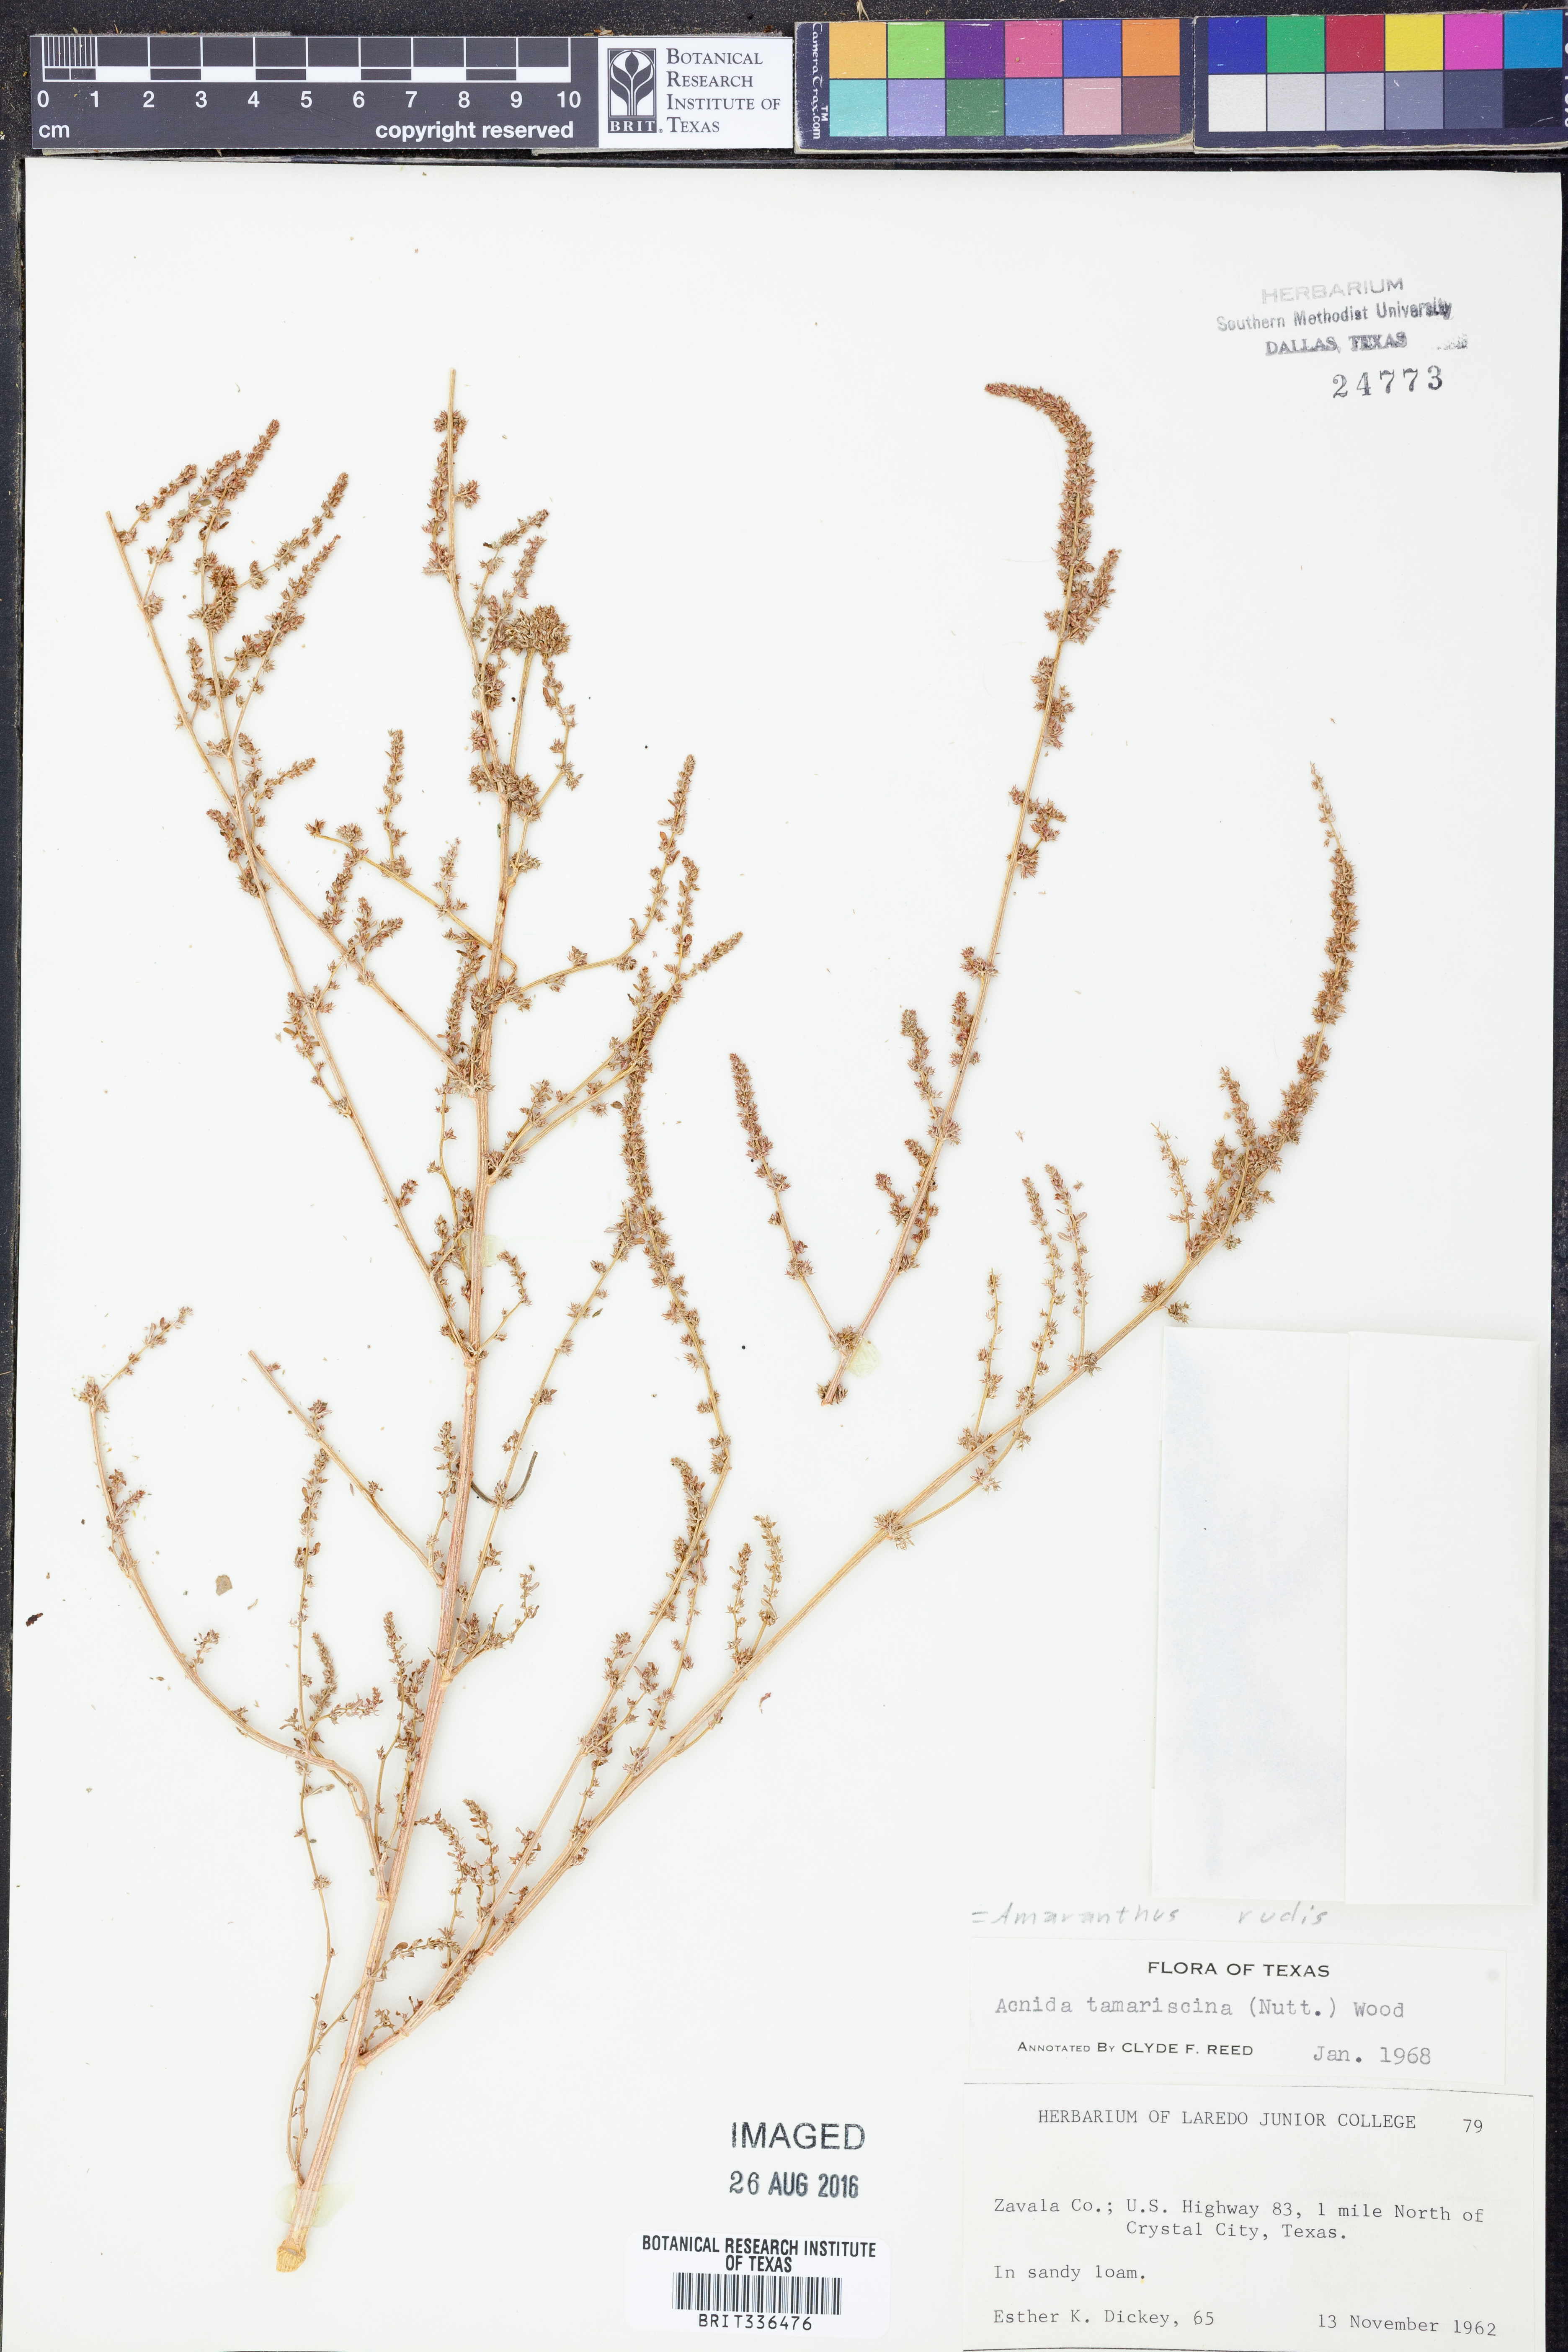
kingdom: Plantae
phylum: Tracheophyta
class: Magnoliopsida
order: Caryophyllales
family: Amaranthaceae
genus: Amaranthus
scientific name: Amaranthus tuberculatus
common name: Rough-fruit amaranth
